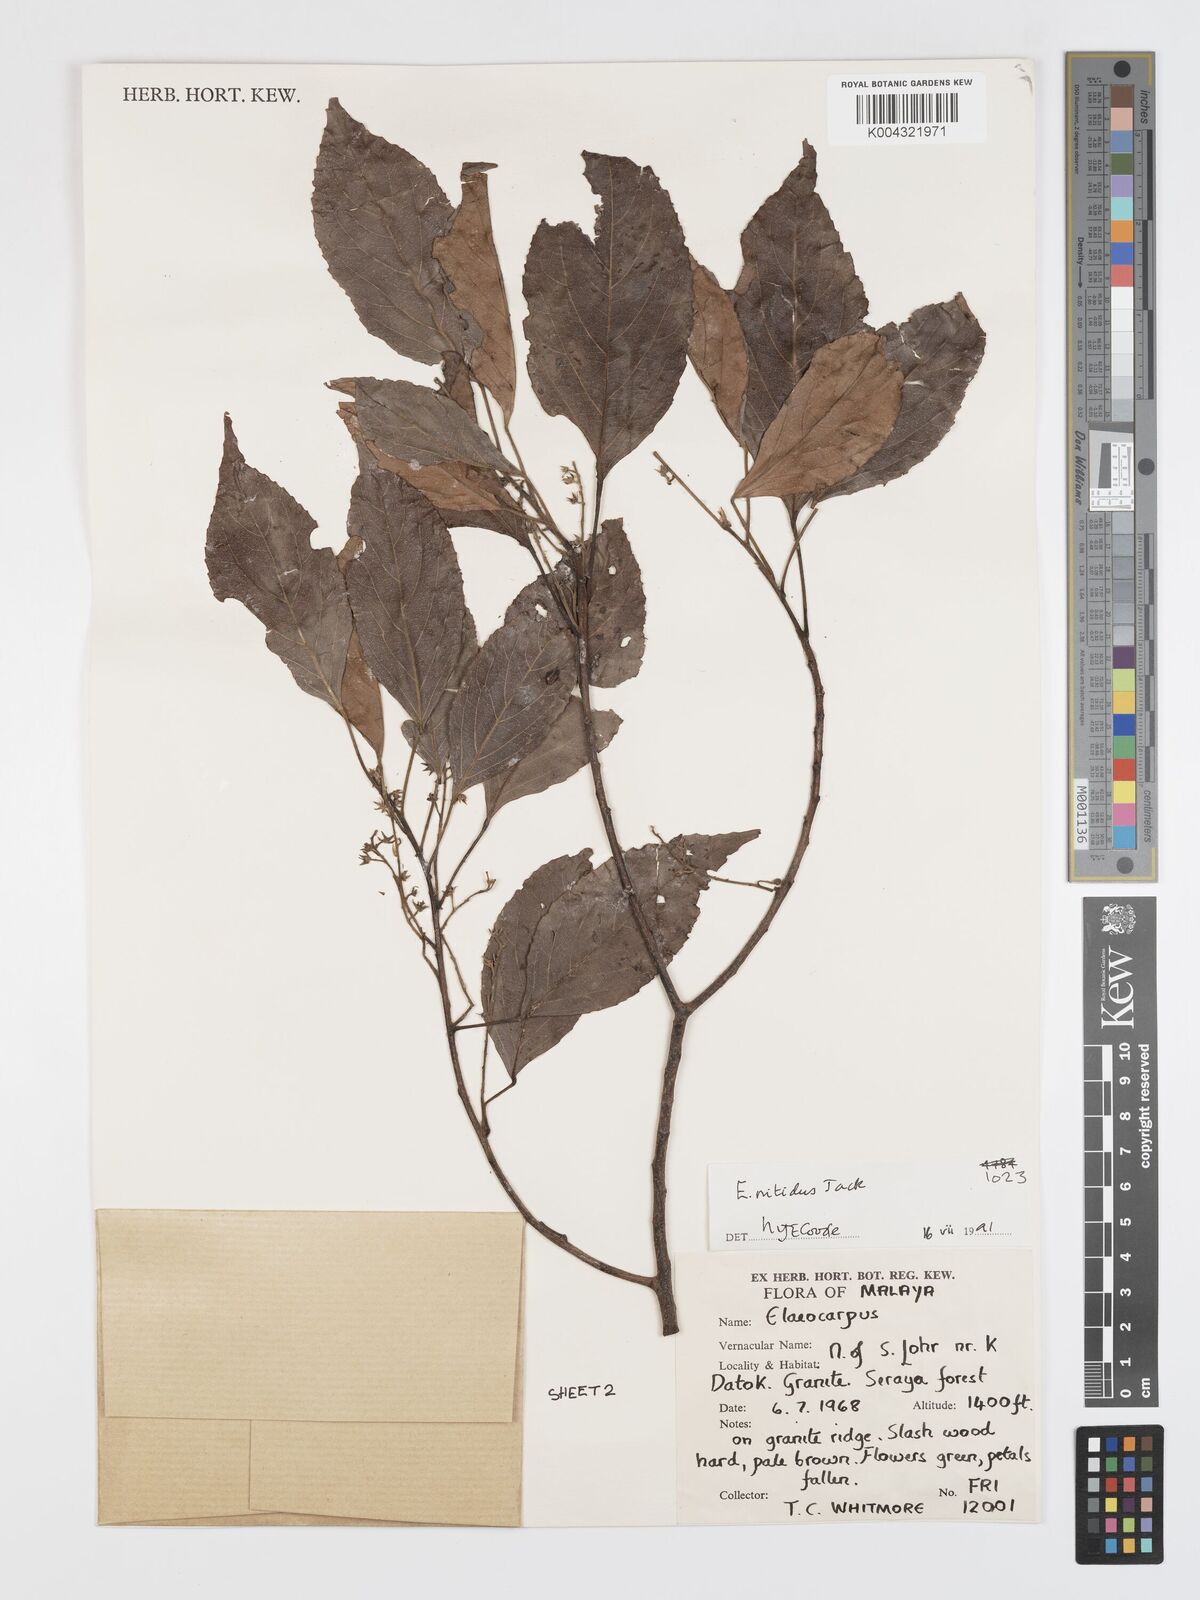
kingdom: Plantae
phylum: Tracheophyta
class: Magnoliopsida
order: Oxalidales
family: Elaeocarpaceae
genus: Elaeocarpus
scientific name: Elaeocarpus nitidus
